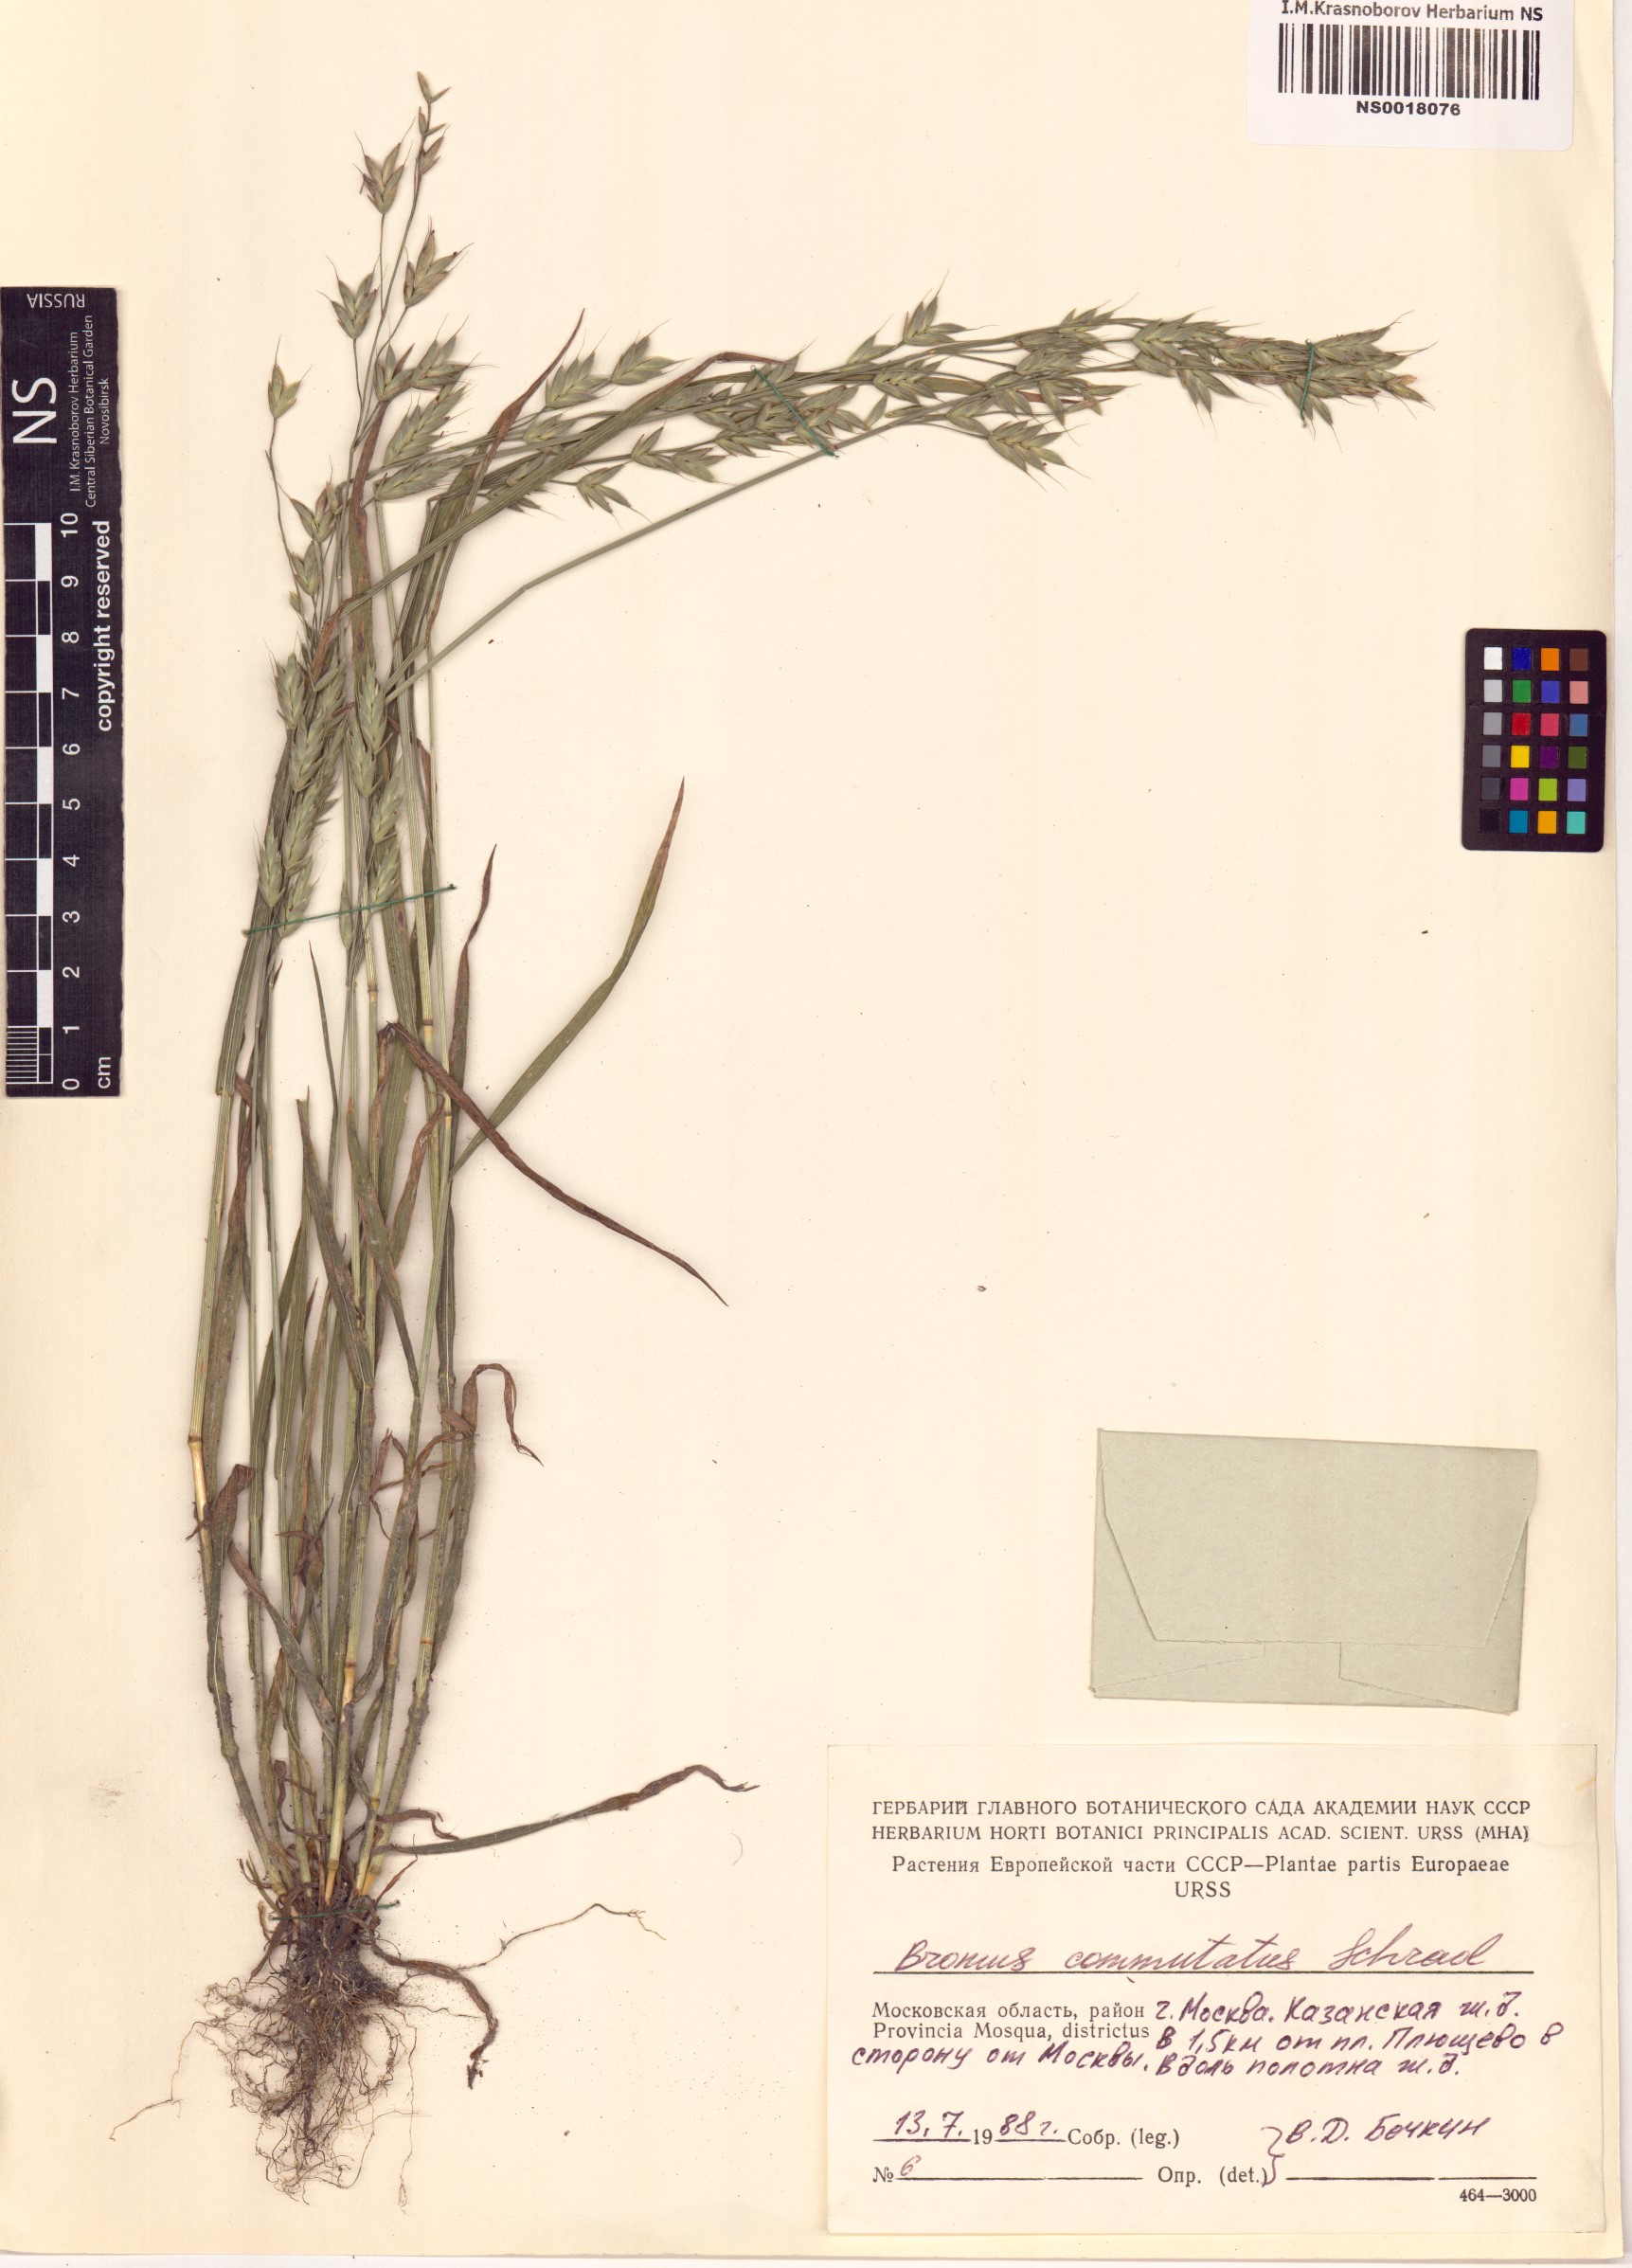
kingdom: Plantae
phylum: Tracheophyta
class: Liliopsida
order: Poales
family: Poaceae
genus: Bromus
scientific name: Bromus commutatus
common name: Meadow brome
